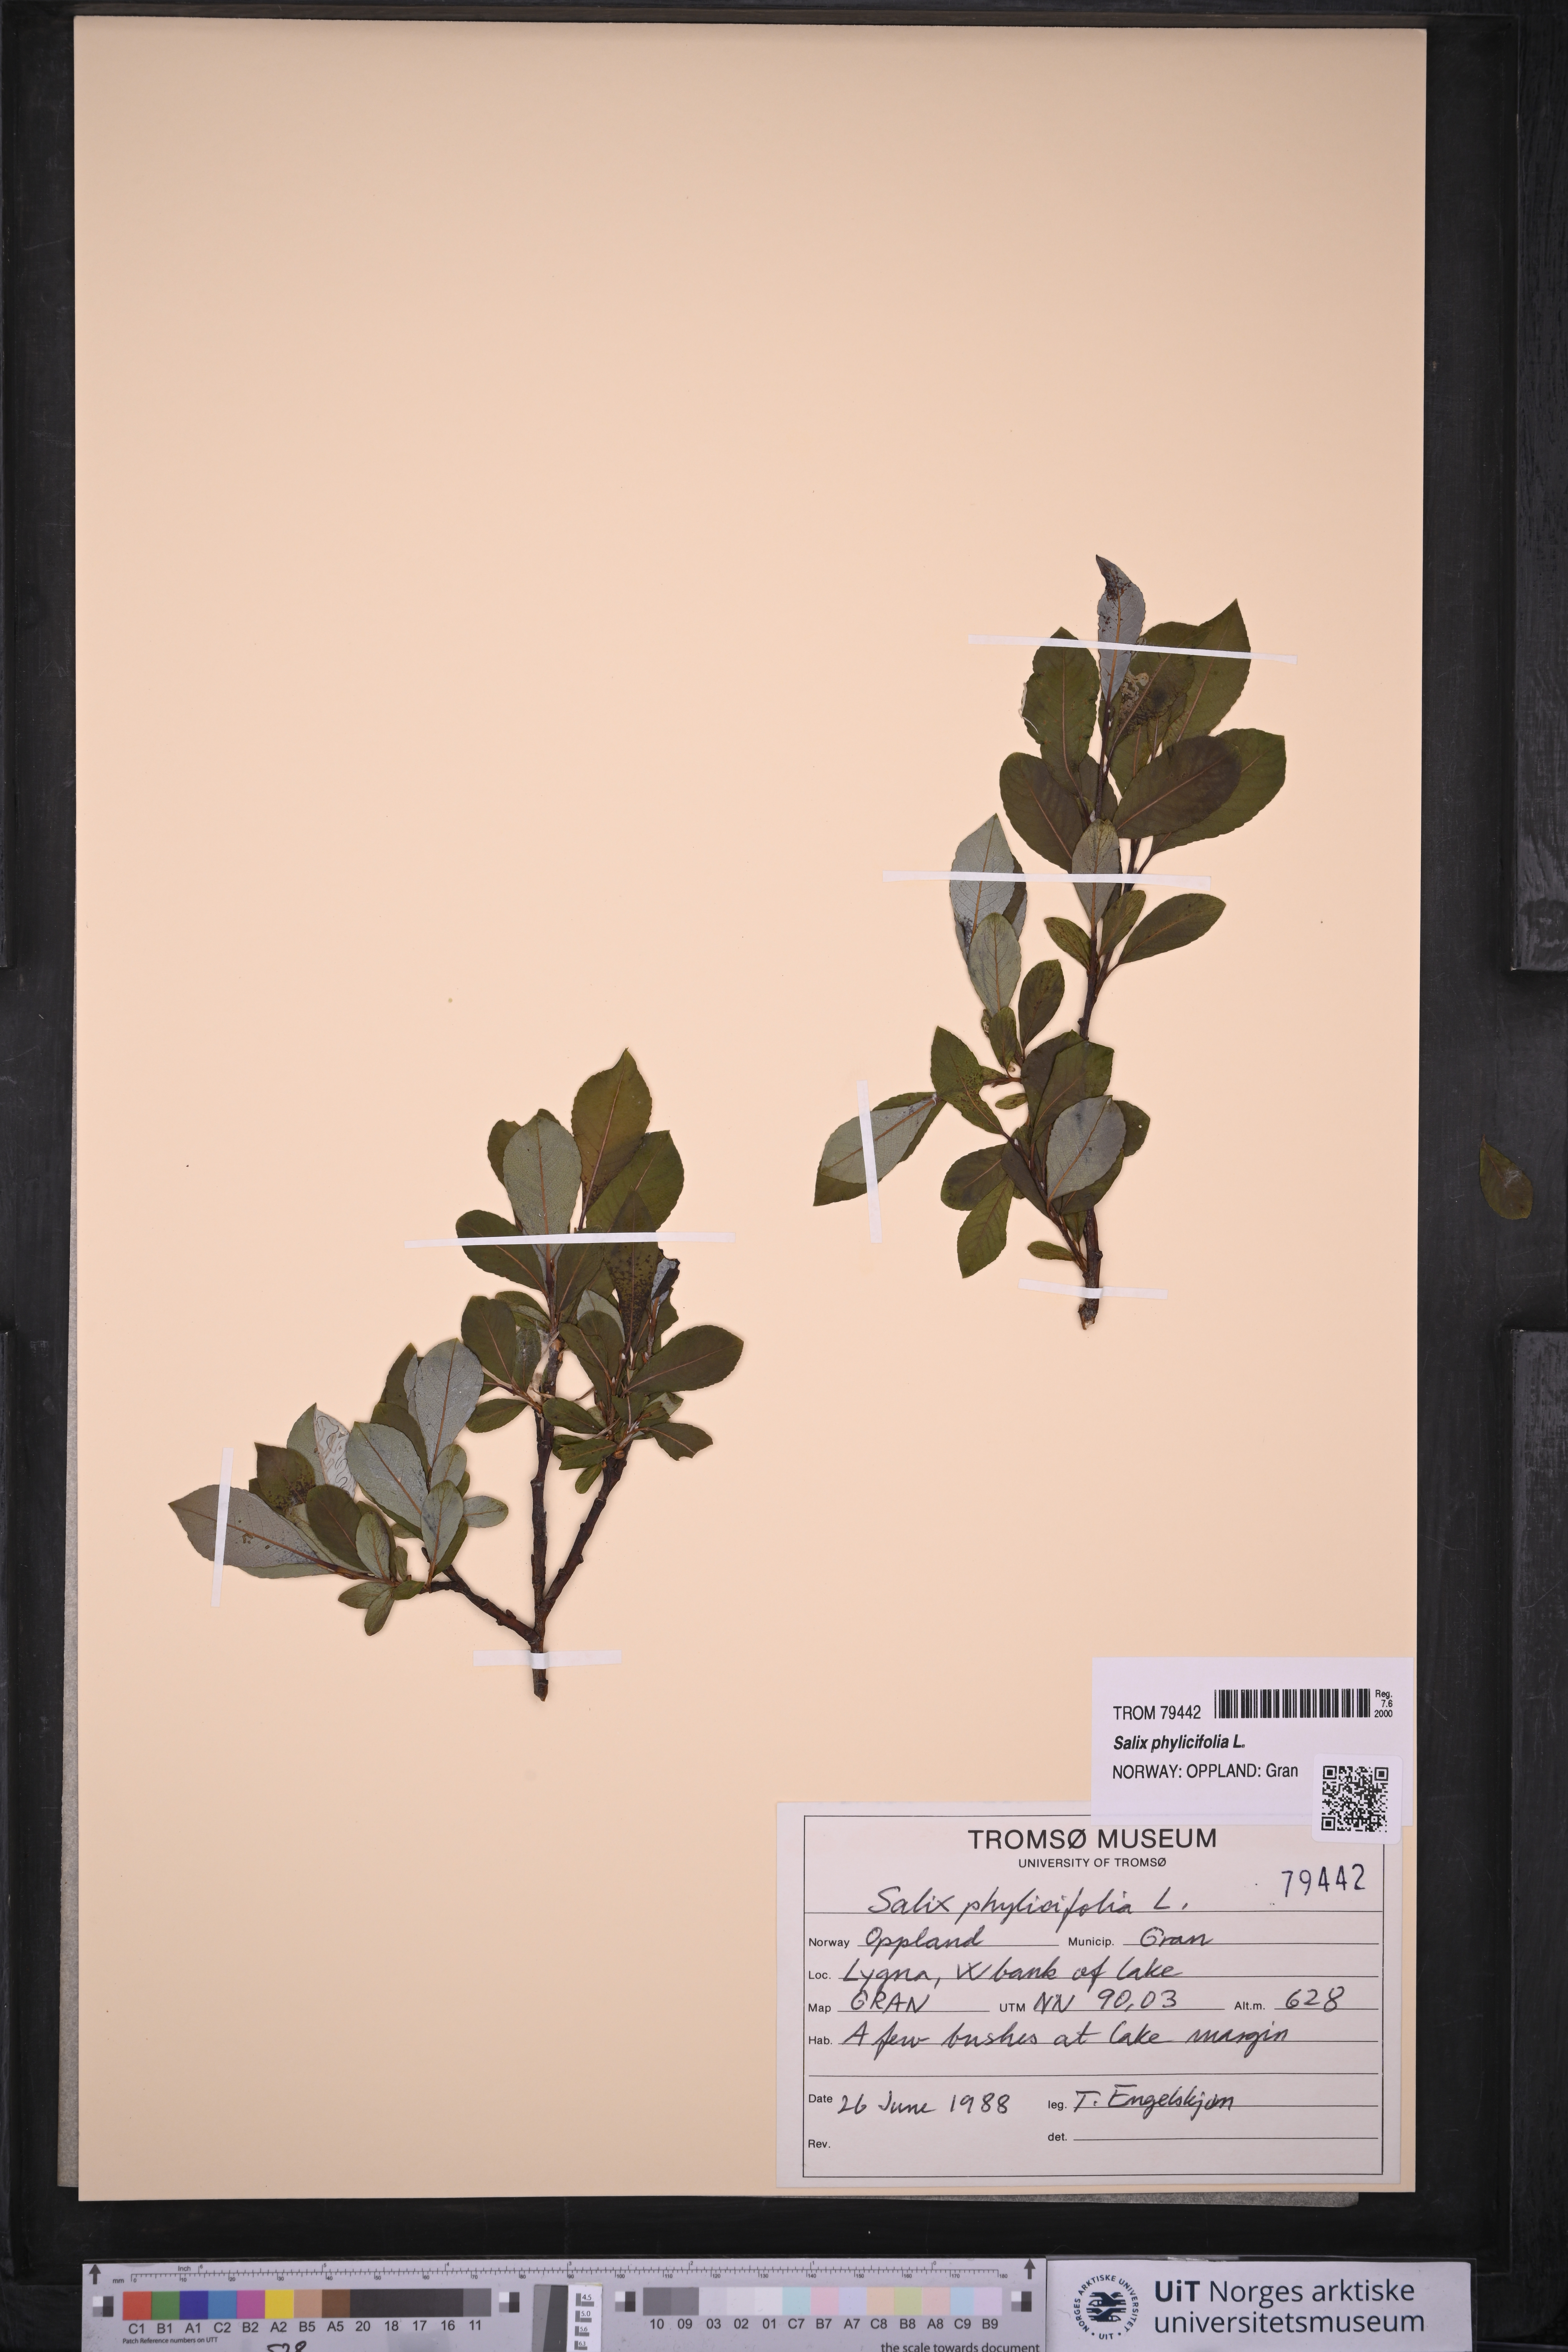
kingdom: Plantae
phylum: Tracheophyta
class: Magnoliopsida
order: Malpighiales
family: Salicaceae
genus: Salix
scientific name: Salix phylicifolia
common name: Tea-leaved willow
